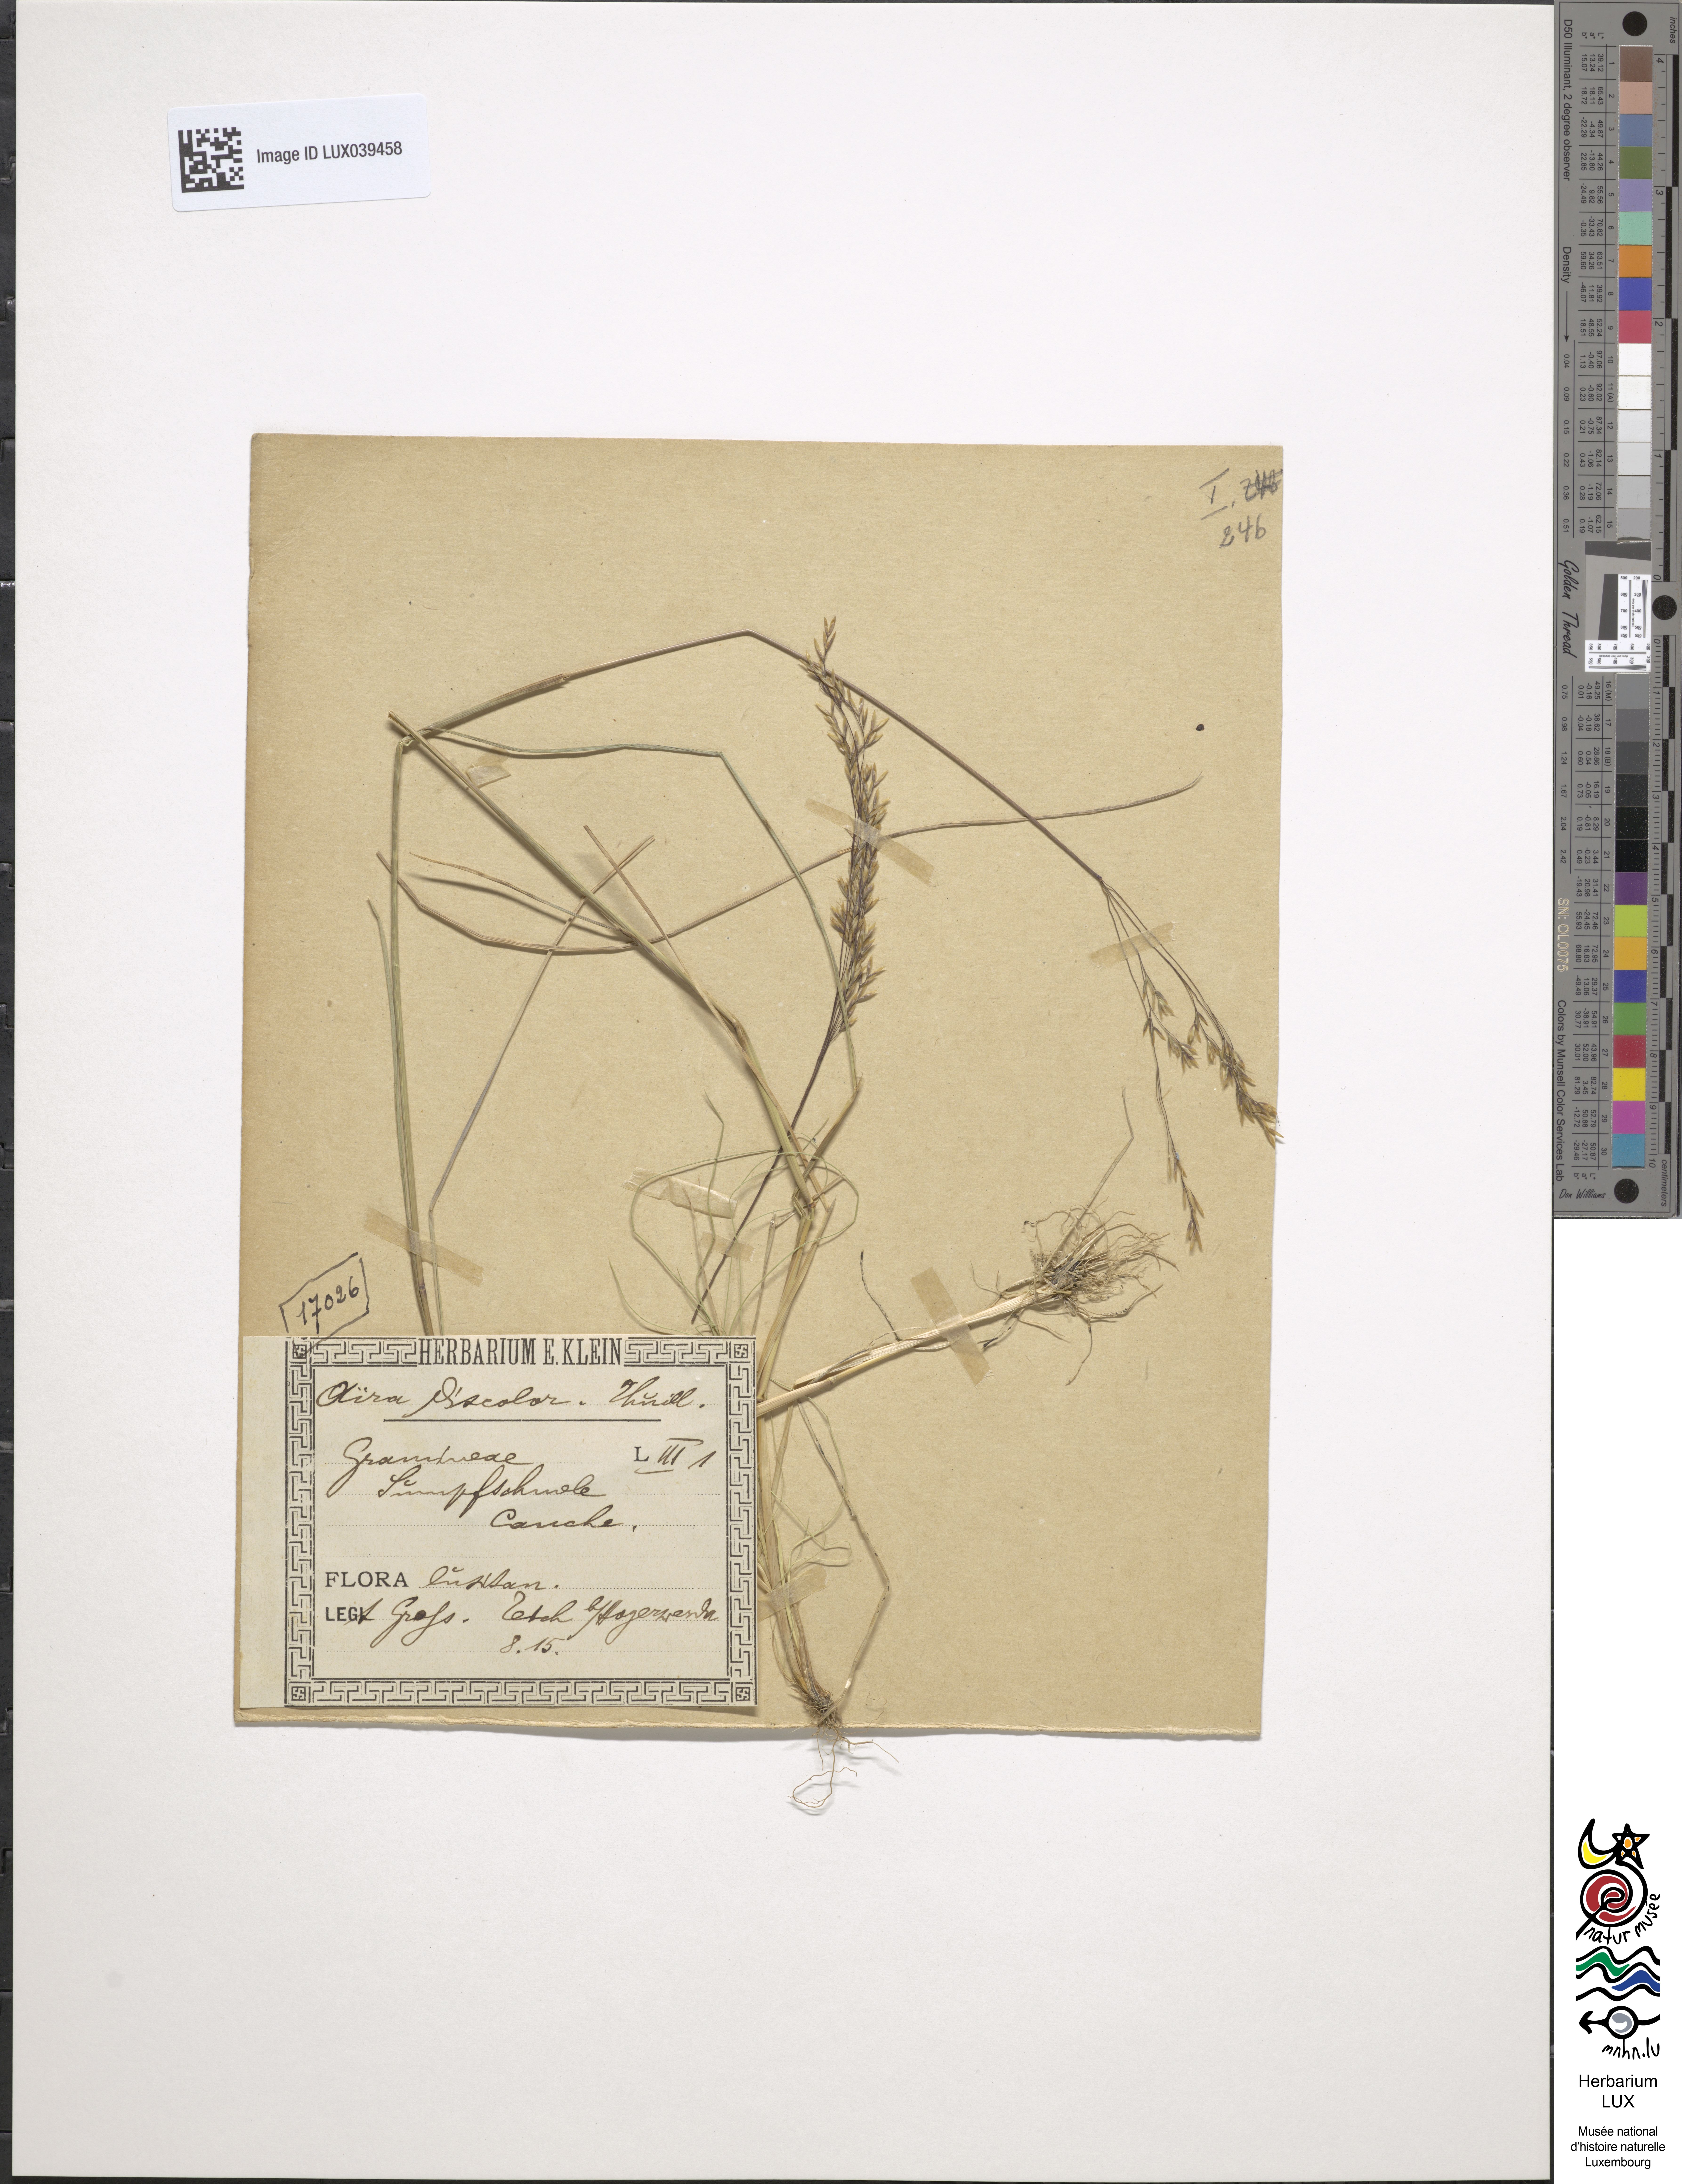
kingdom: Plantae
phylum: Tracheophyta
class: Liliopsida
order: Poales
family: Poaceae
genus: Deschampsia
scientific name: Deschampsia setacea
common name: Bog hair-grass
